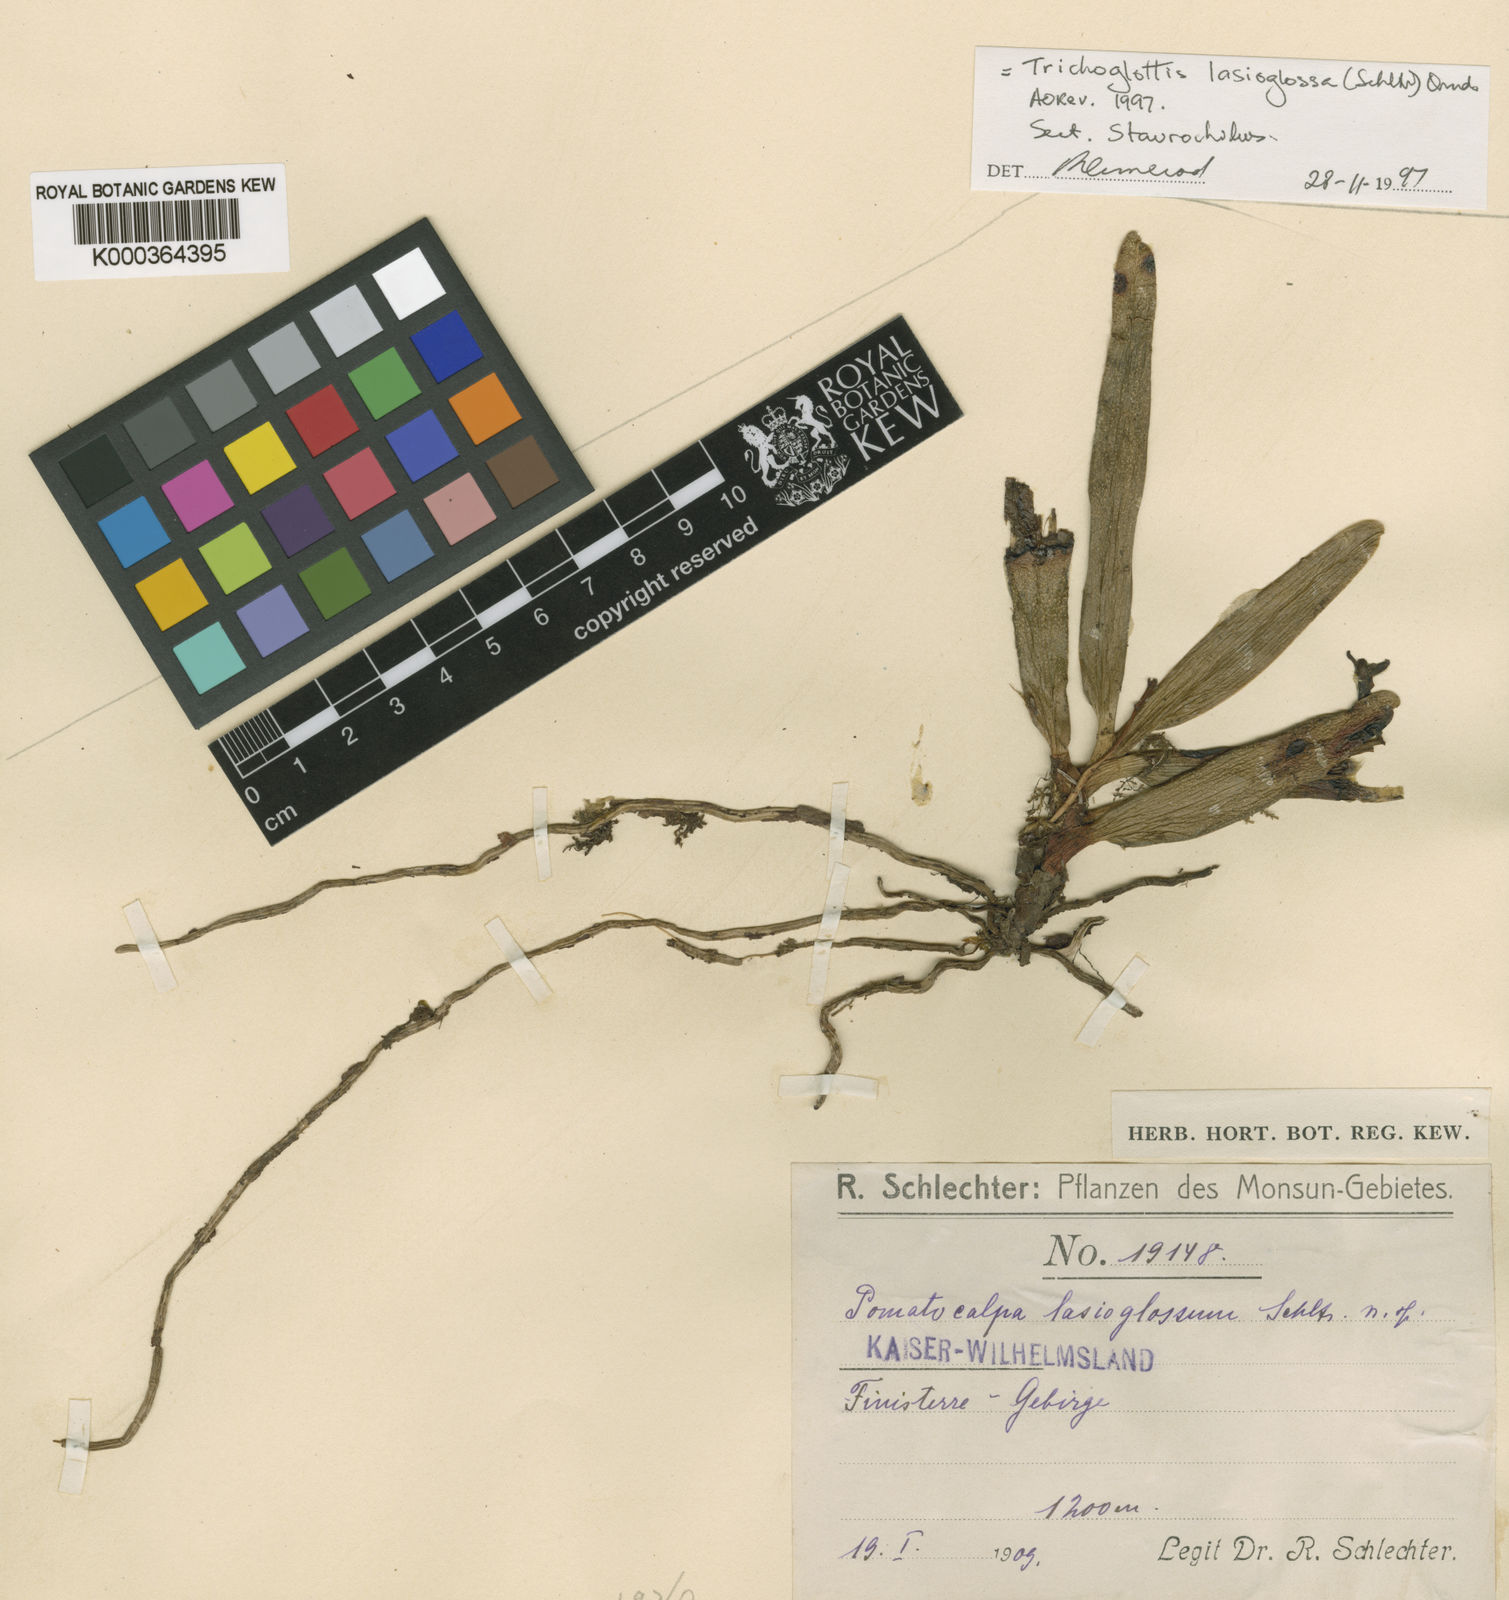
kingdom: Plantae
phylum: Tracheophyta
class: Liliopsida
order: Asparagales
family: Orchidaceae
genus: Trichoglottis
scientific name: Trichoglottis
